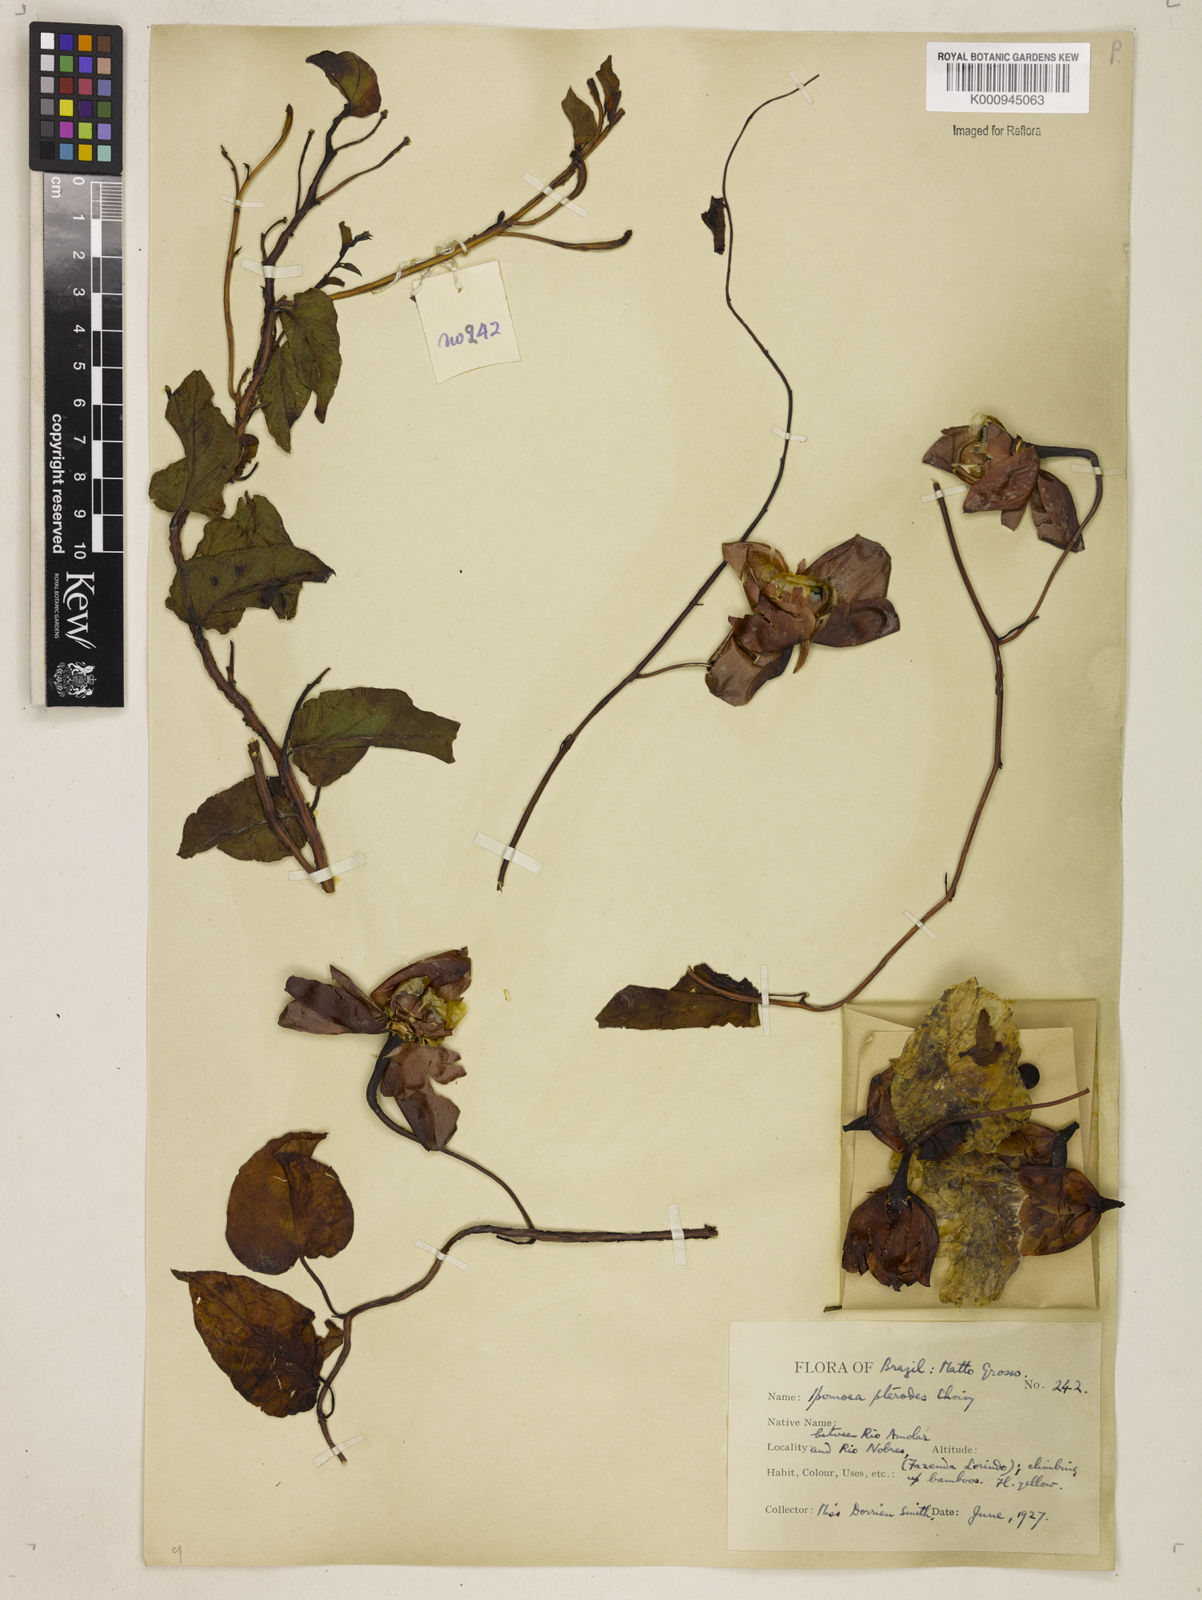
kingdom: Plantae
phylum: Tracheophyta
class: Magnoliopsida
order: Solanales
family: Convolvulaceae
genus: Operculina
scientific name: Operculina hamiltonii
